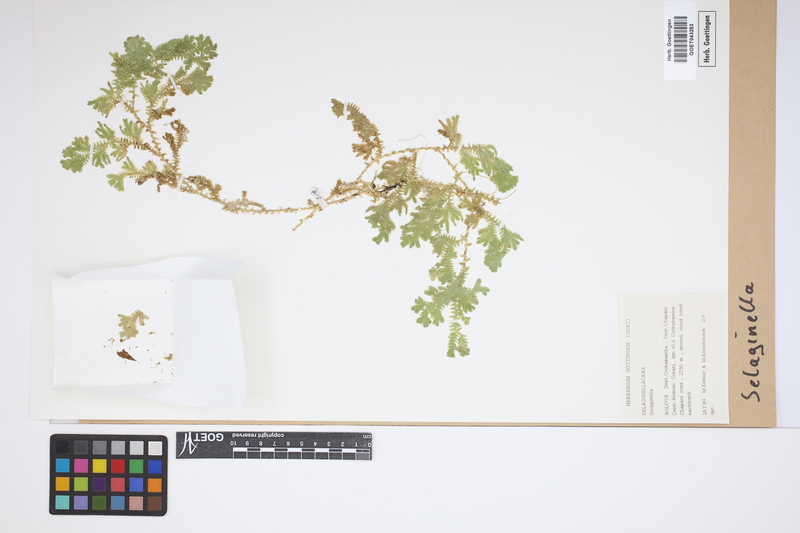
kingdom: Plantae
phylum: Tracheophyta
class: Lycopodiopsida
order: Selaginellales
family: Selaginellaceae
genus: Selaginella
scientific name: Selaginella
